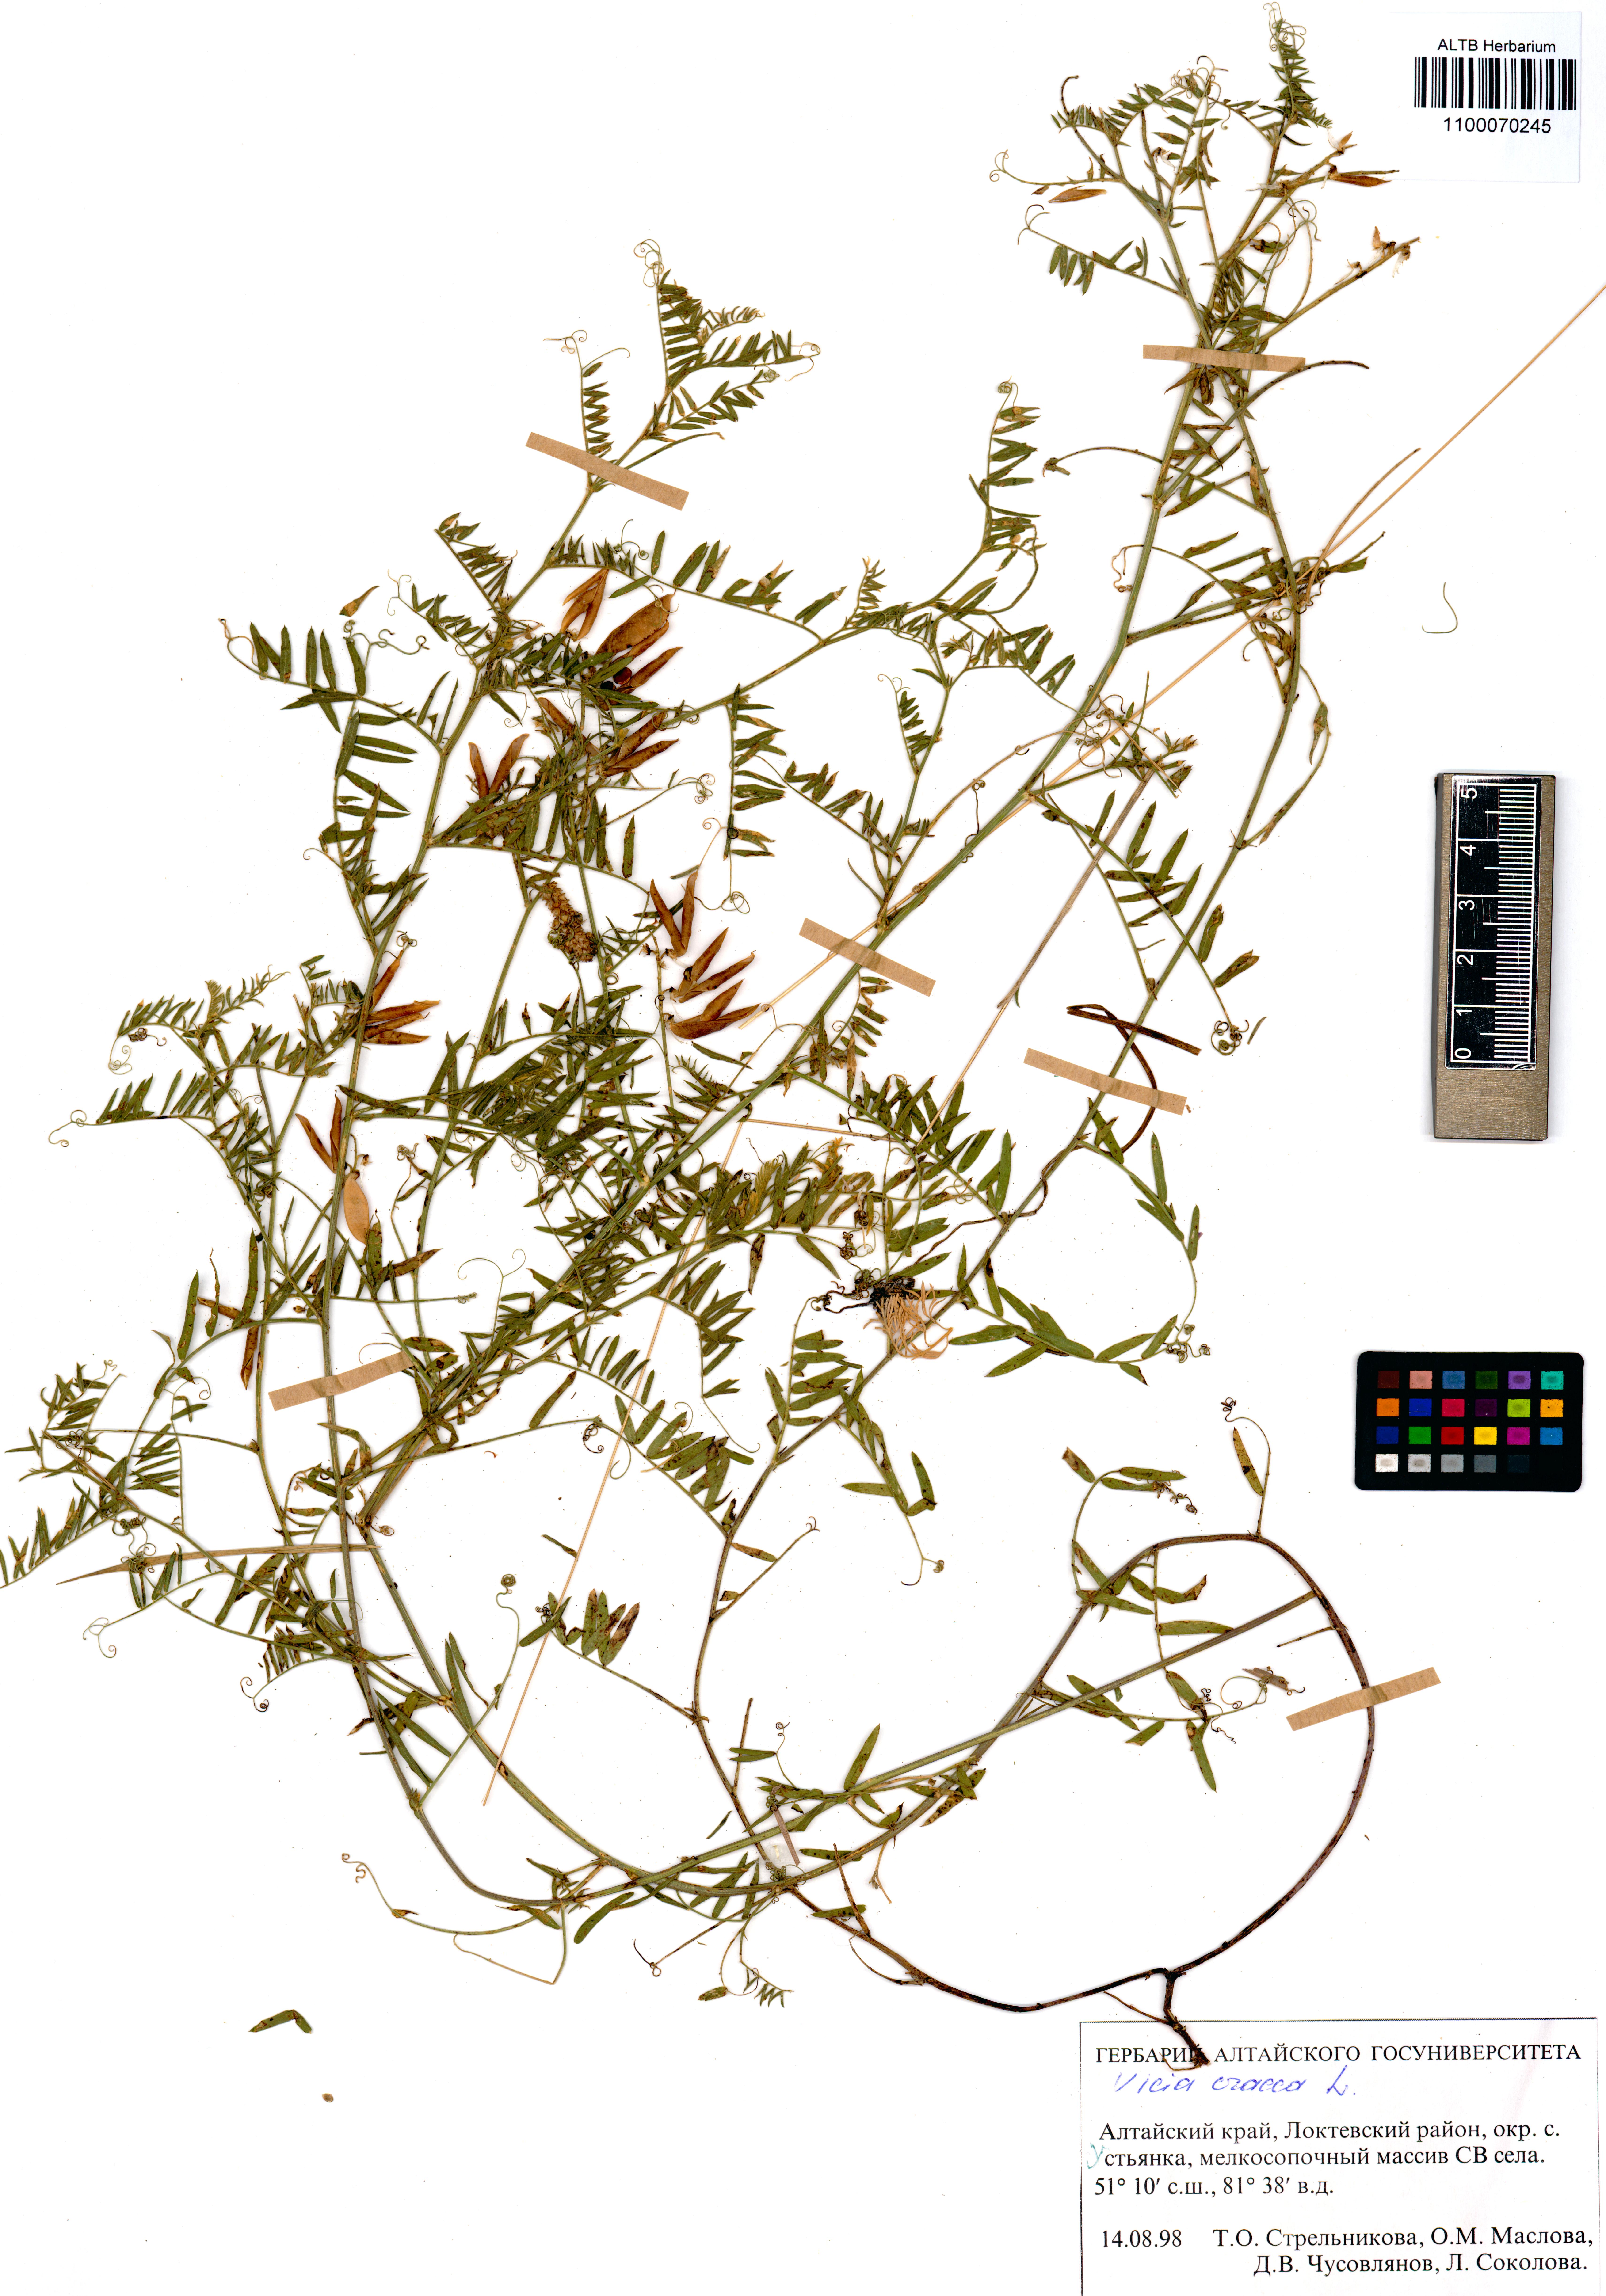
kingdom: Plantae
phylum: Tracheophyta
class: Magnoliopsida
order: Fabales
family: Fabaceae
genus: Vicia
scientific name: Vicia cracca
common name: Bird vetch
